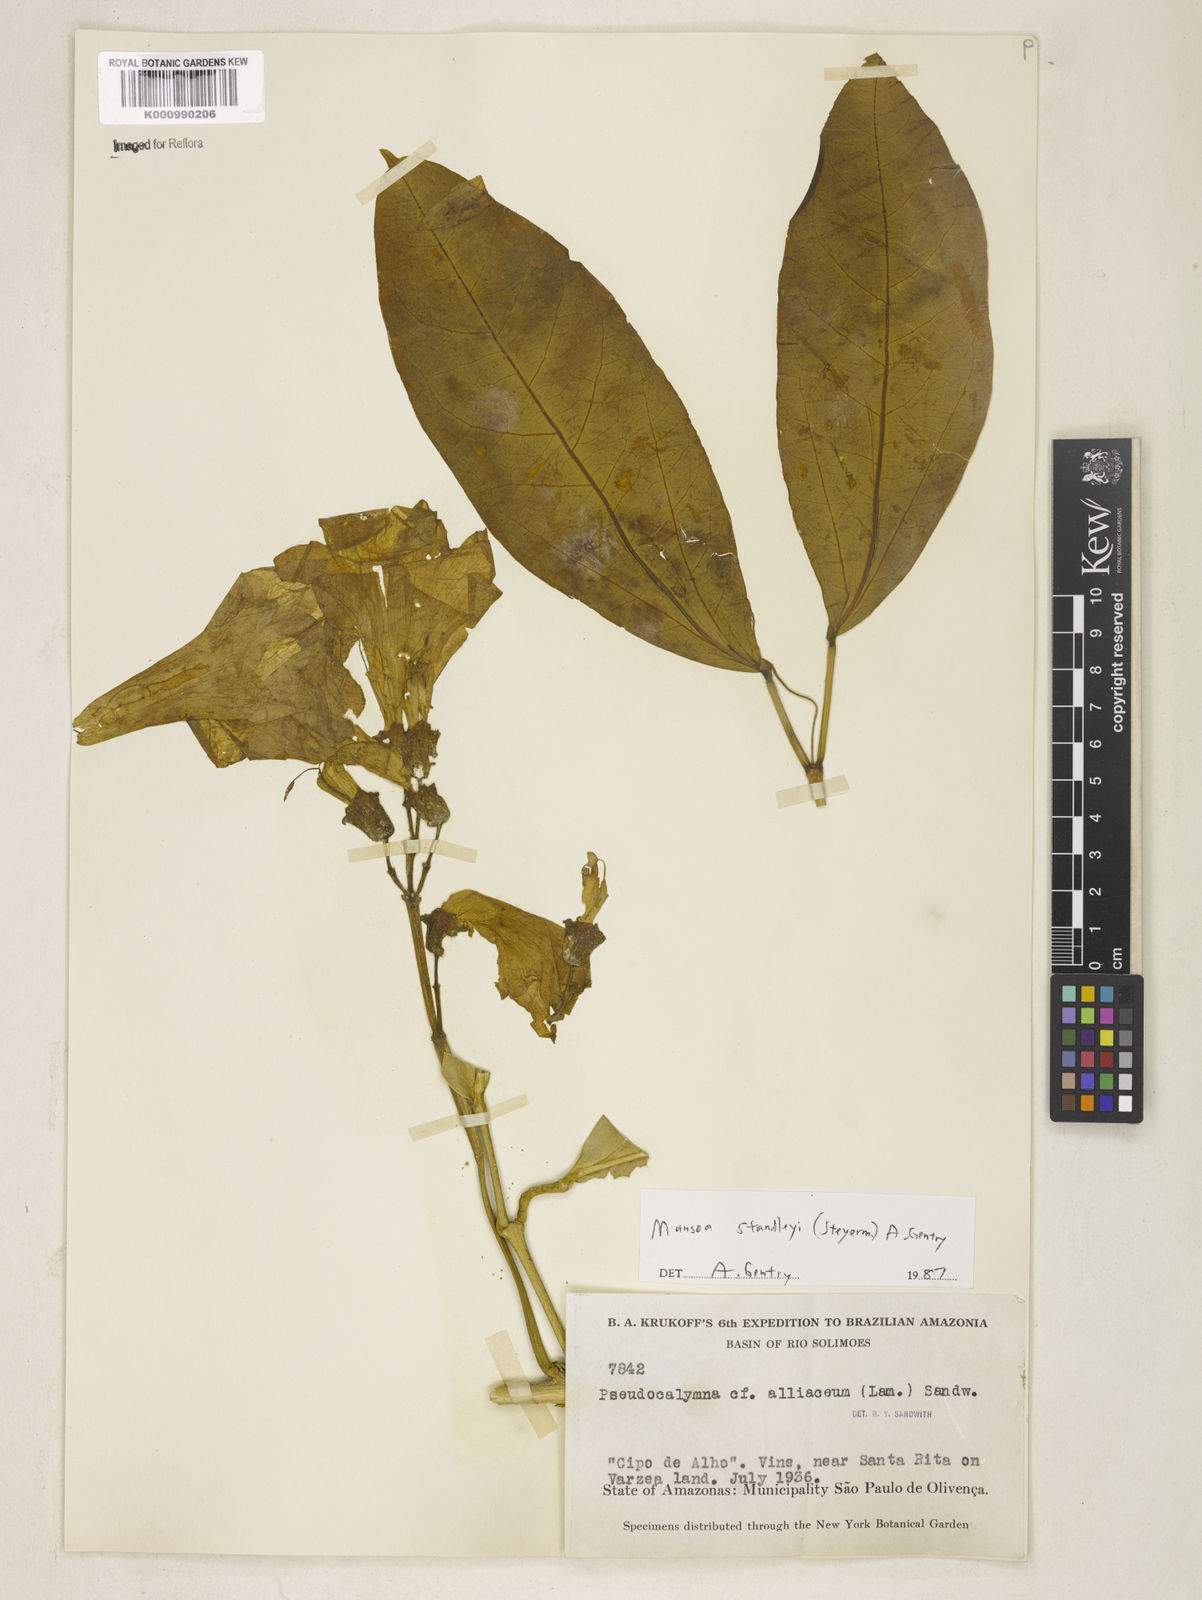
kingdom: Plantae
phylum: Tracheophyta
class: Magnoliopsida
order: Lamiales
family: Bignoniaceae
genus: Mansoa
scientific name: Mansoa standleyi
